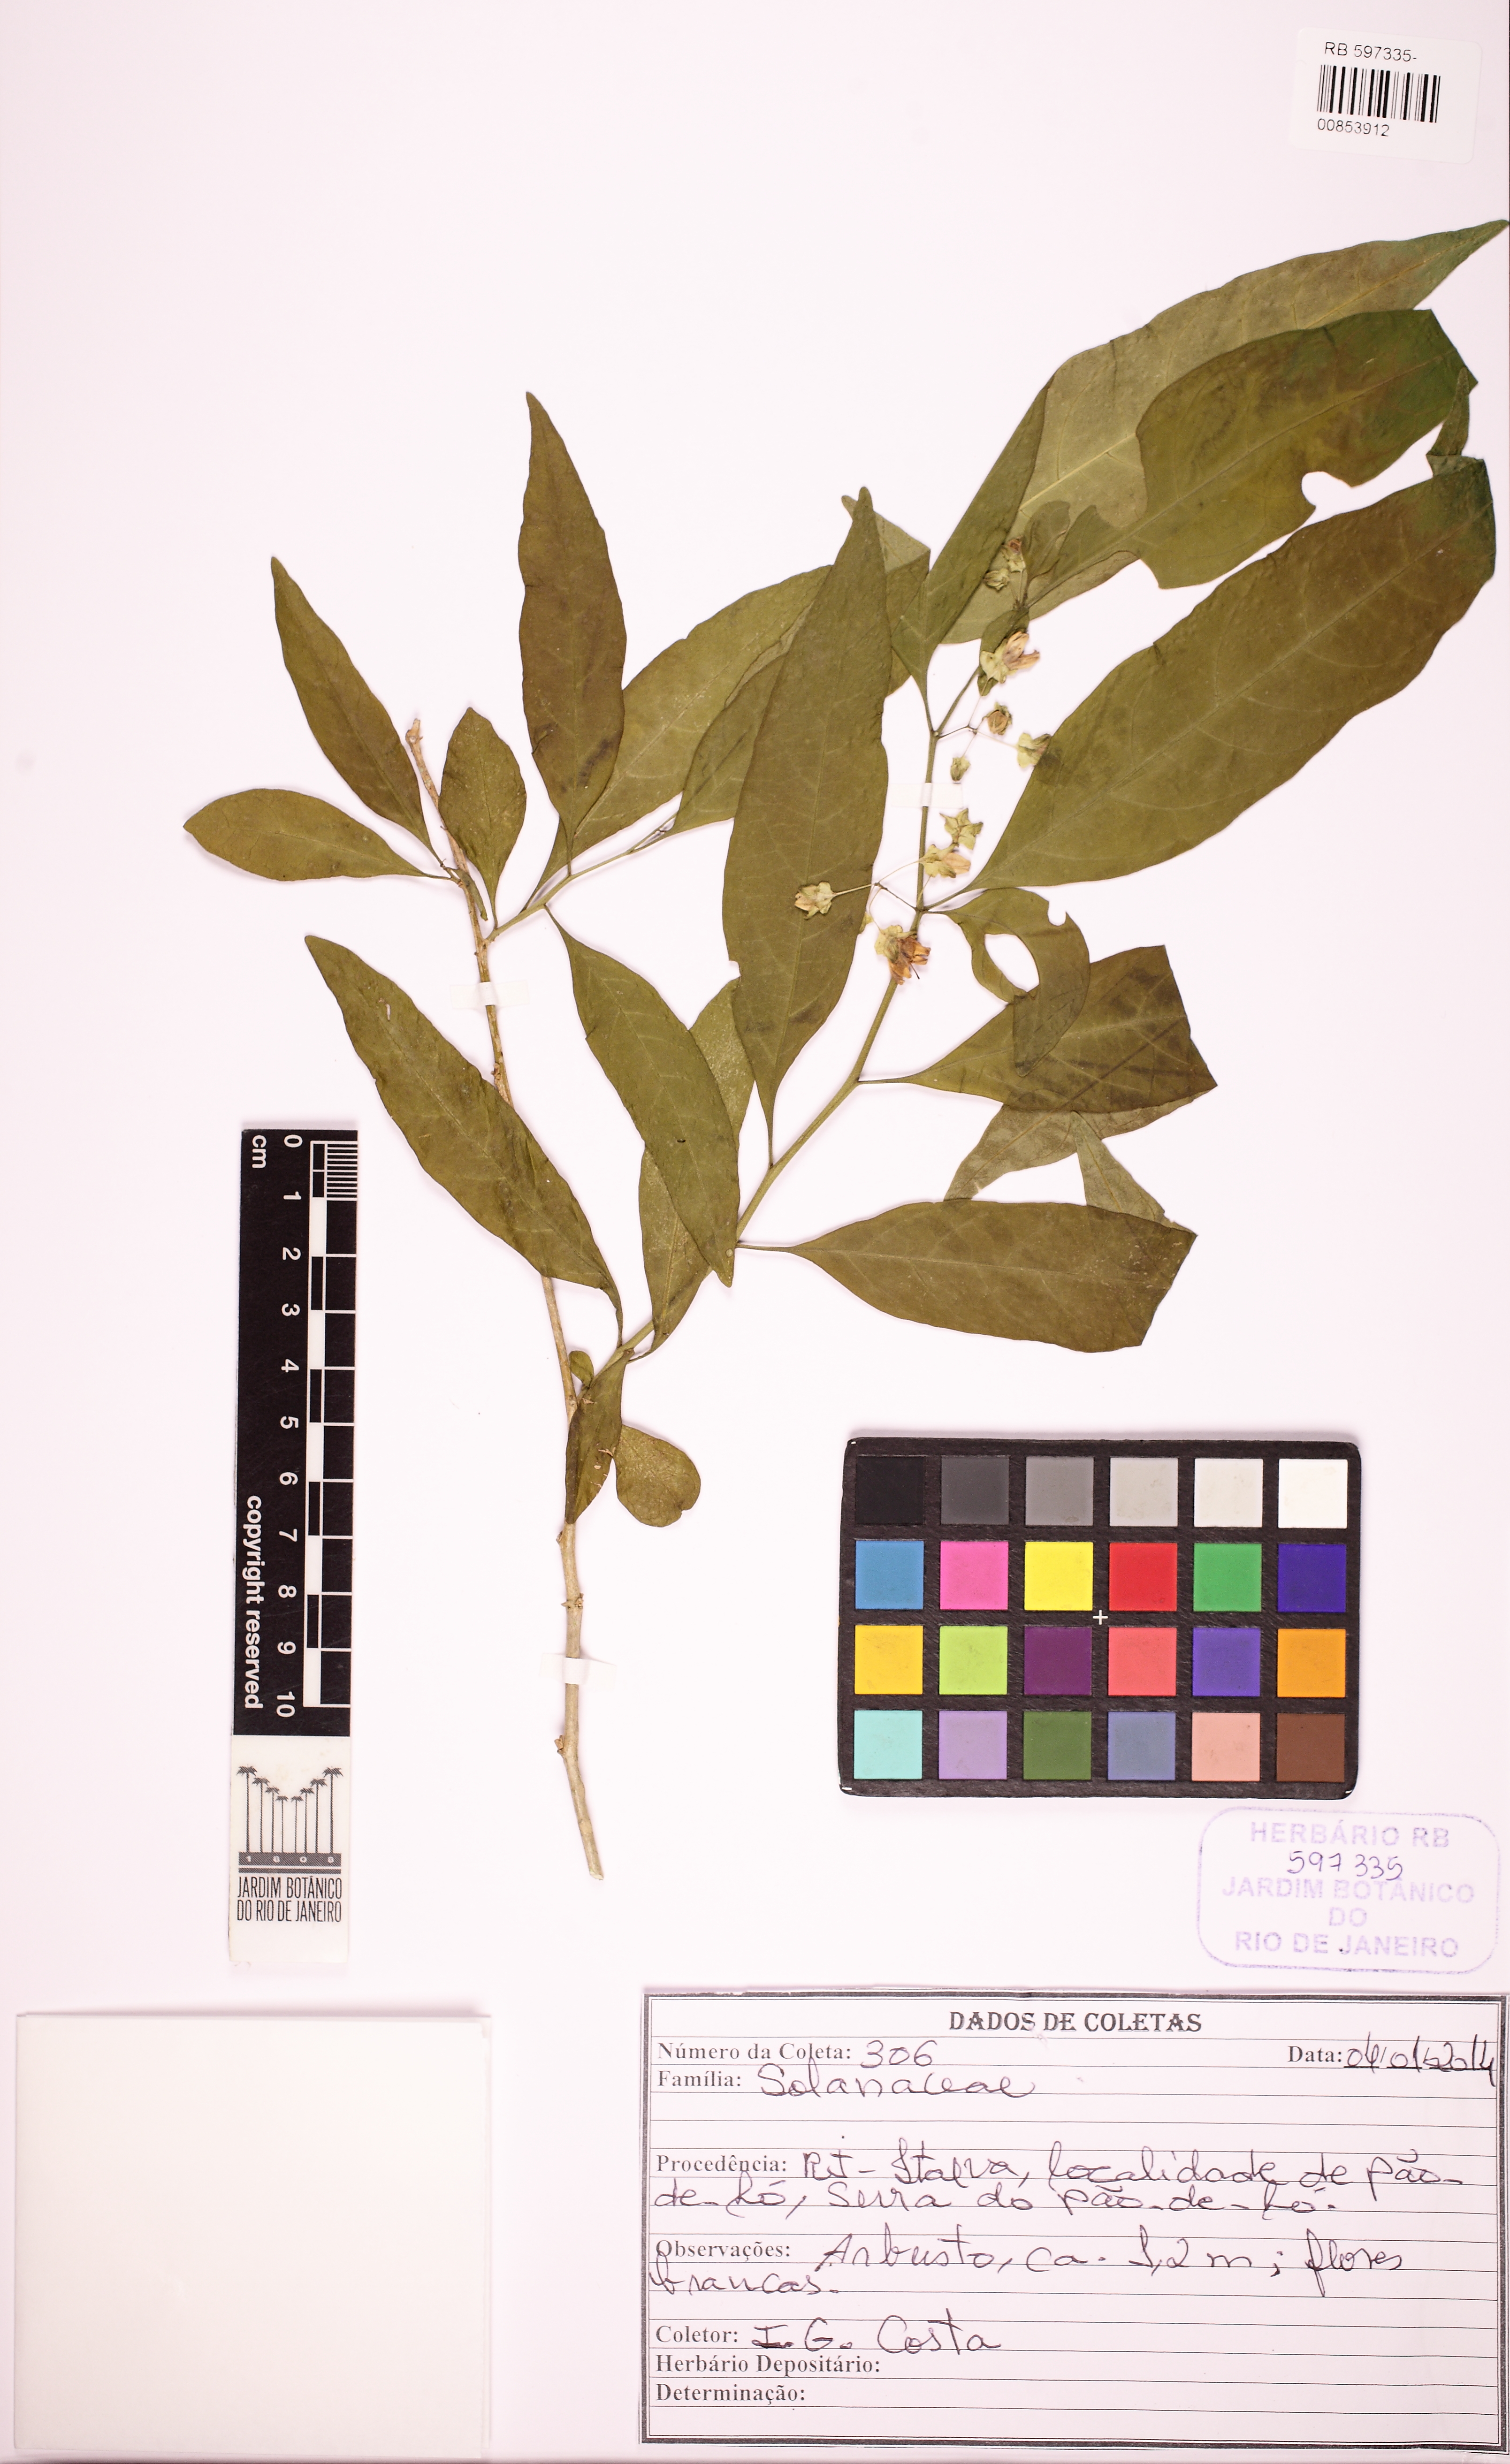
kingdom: Plantae
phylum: Tracheophyta
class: Magnoliopsida
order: Solanales
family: Solanaceae
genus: Solanum
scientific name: Solanum warmingii
